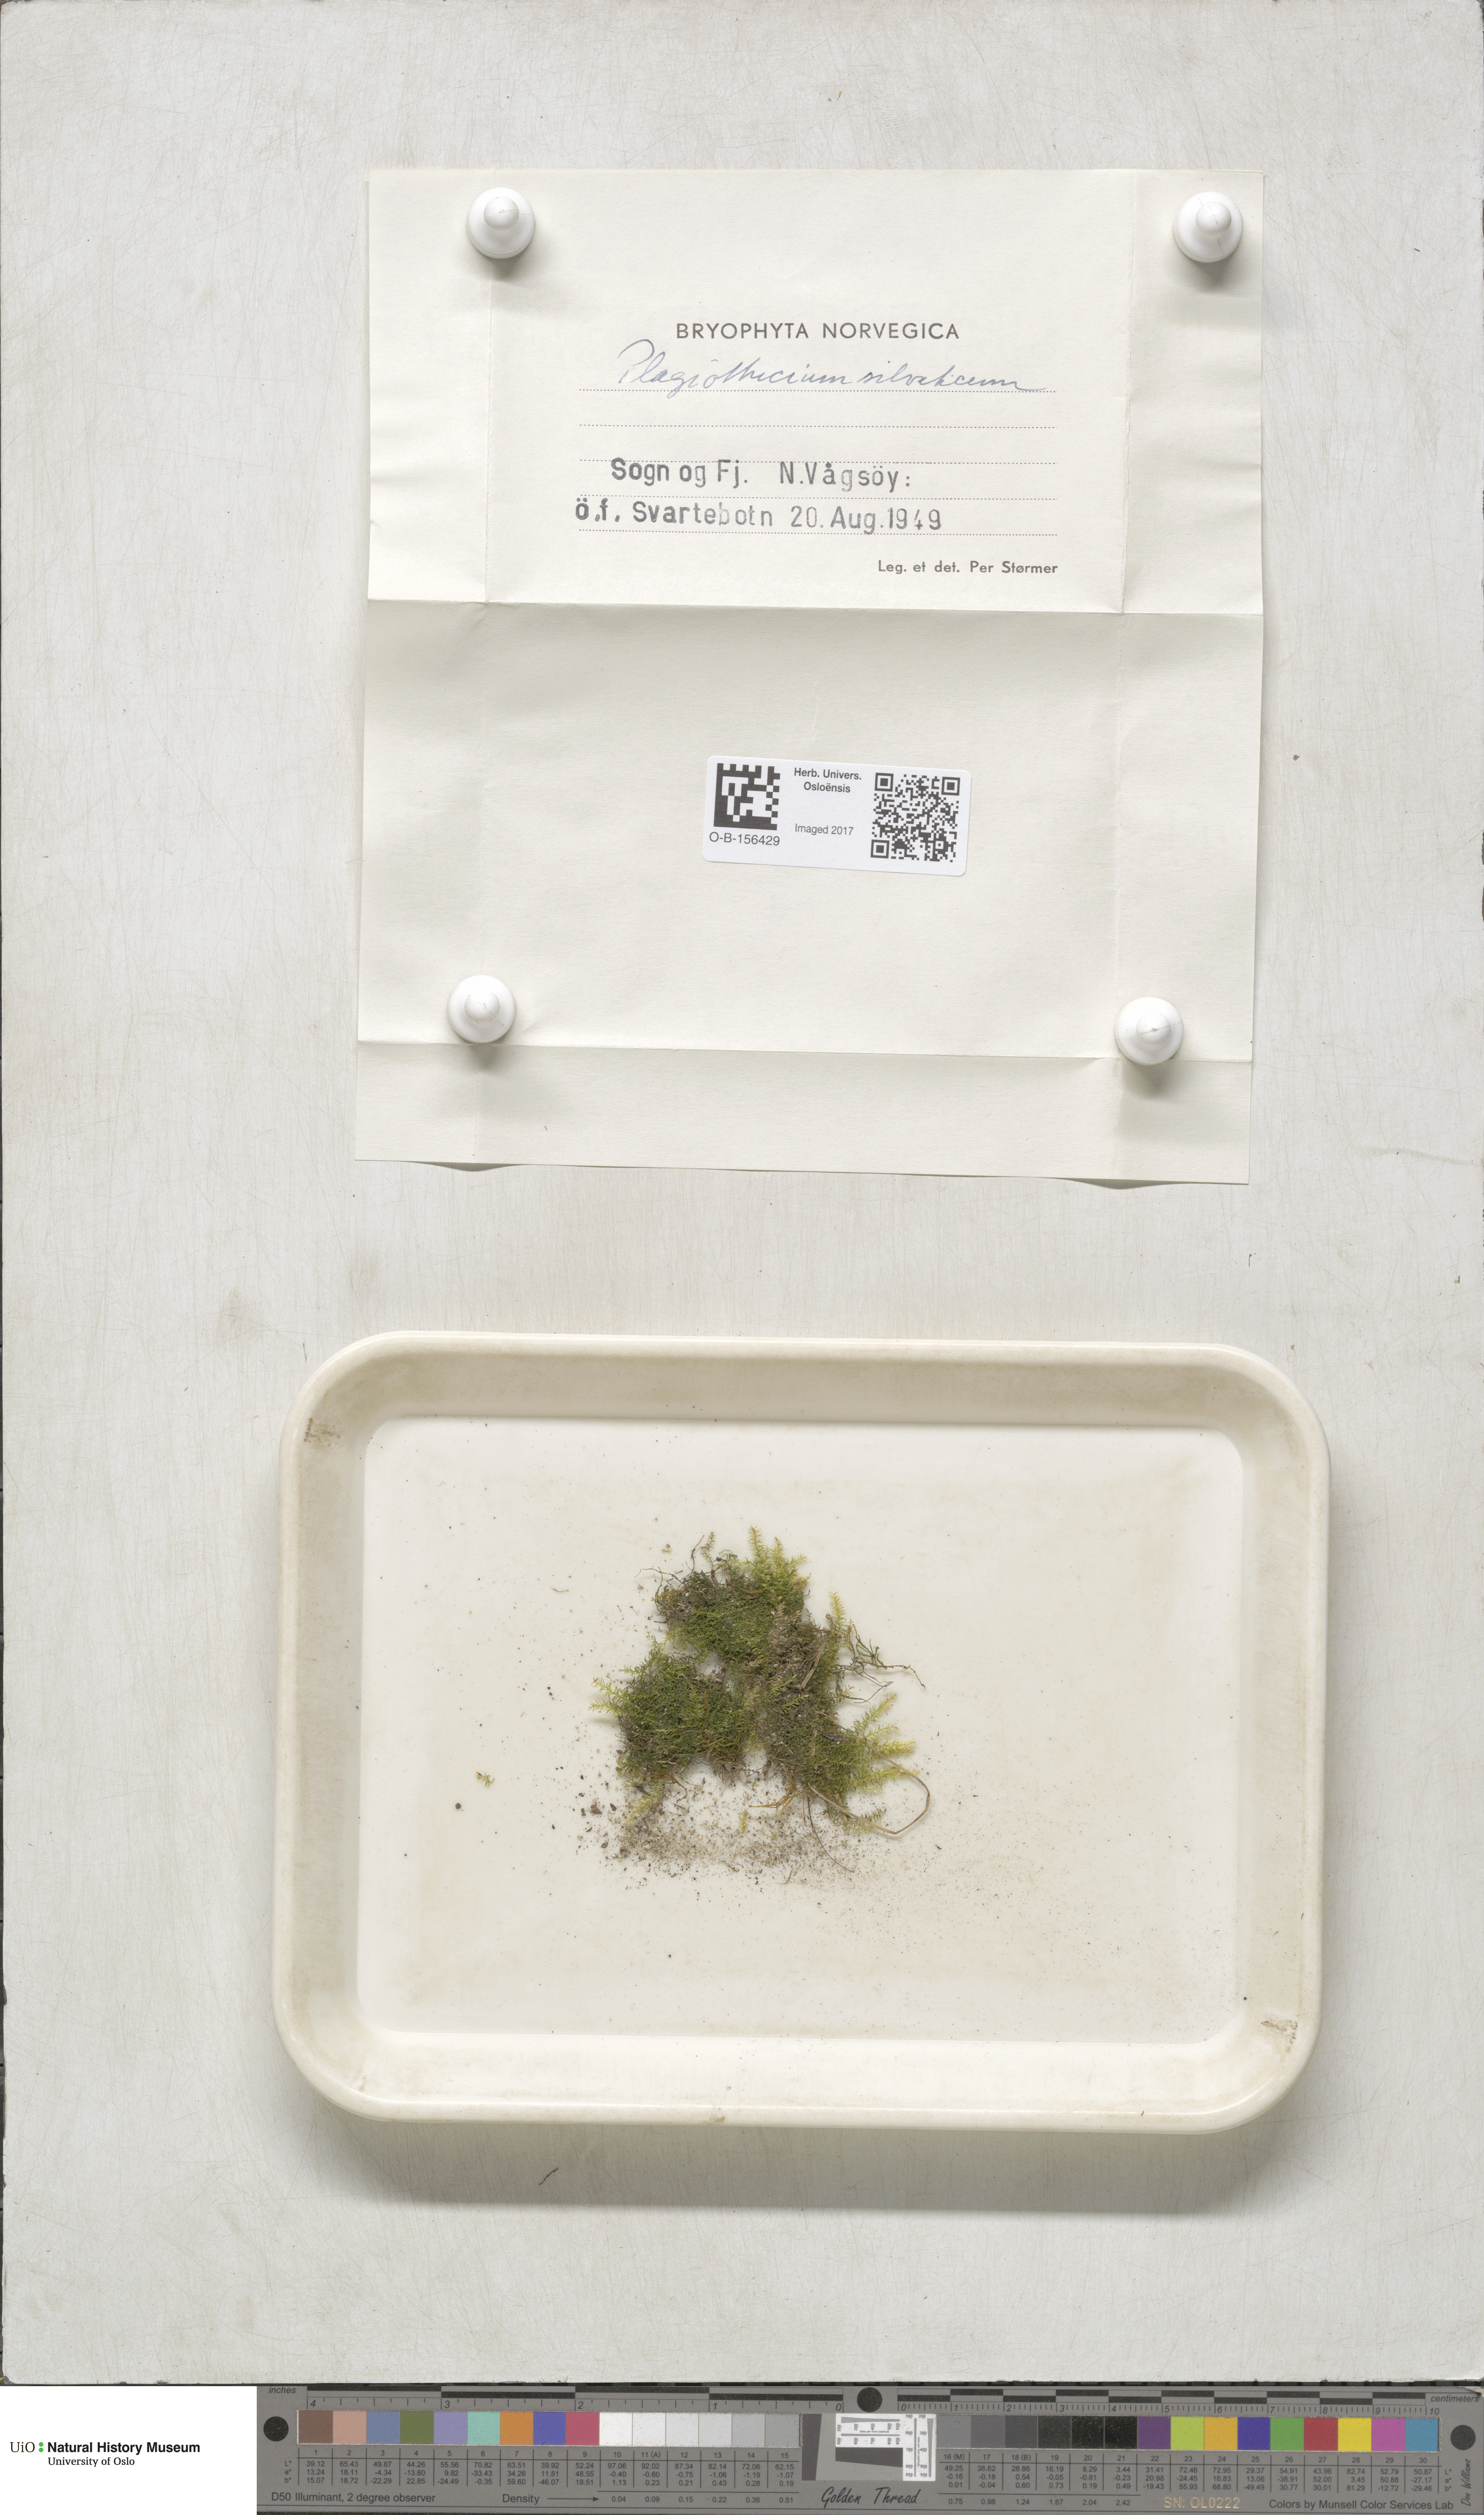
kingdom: Plantae
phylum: Bryophyta
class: Bryopsida
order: Hypnales
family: Plagiotheciaceae
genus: Plagiothecium
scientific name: Plagiothecium nemorale
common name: Woodsy silk-moss
